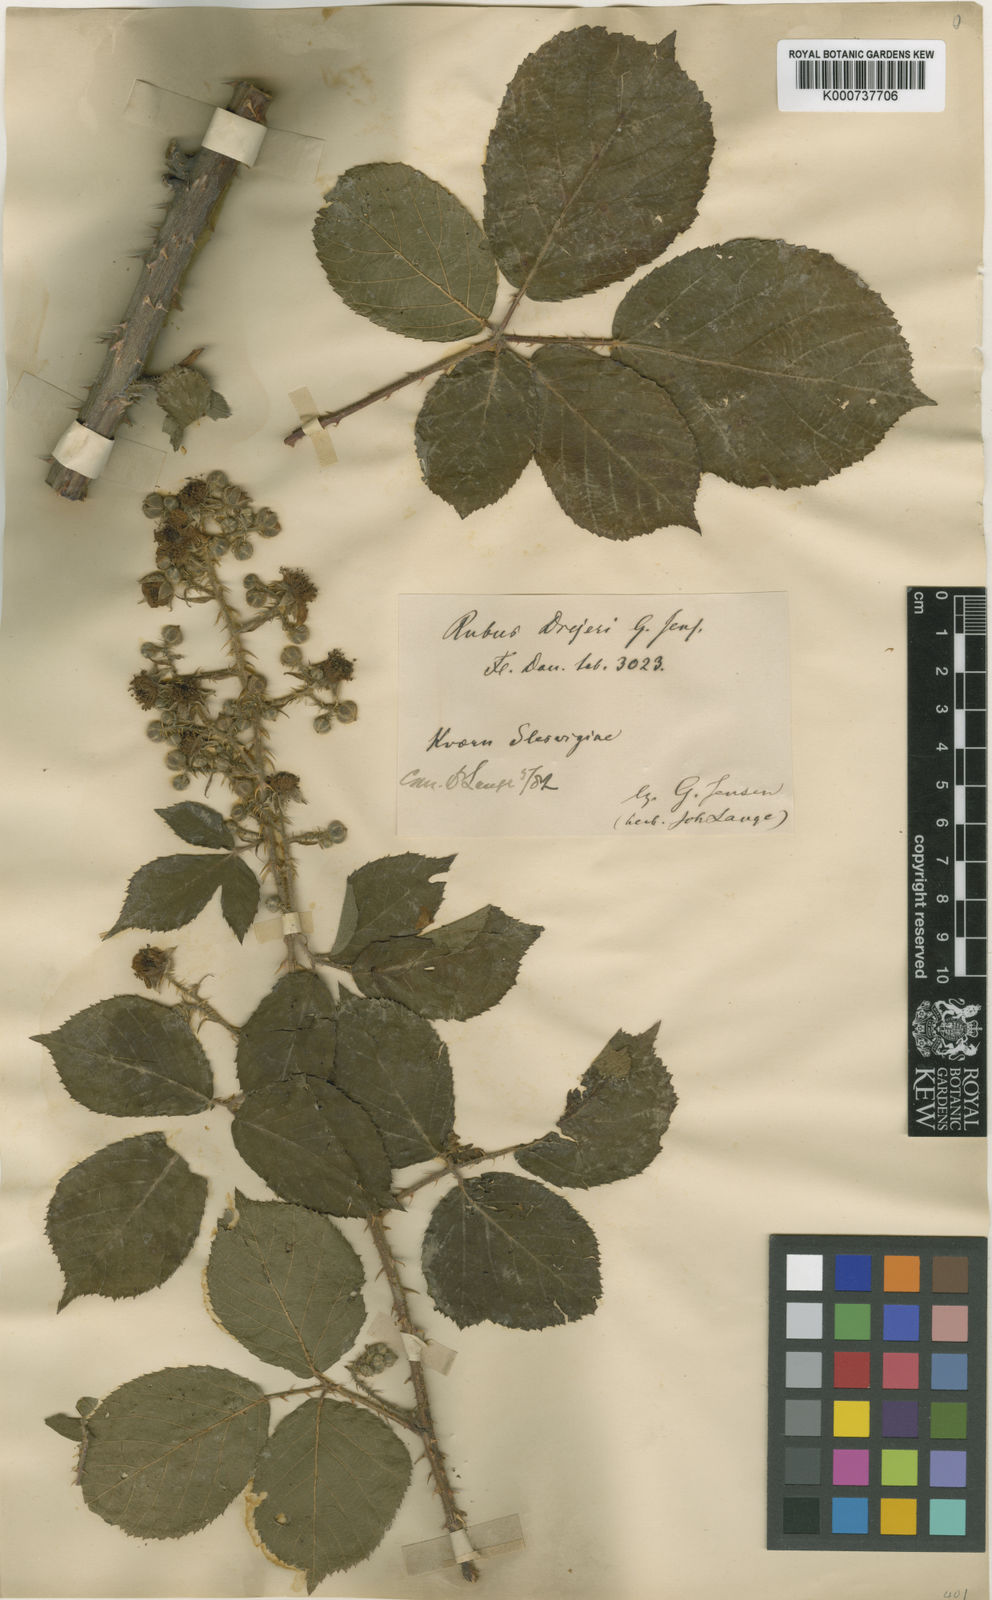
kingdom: Plantae
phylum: Tracheophyta
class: Magnoliopsida
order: Rosales
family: Rosaceae
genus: Rubus
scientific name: Rubus sprengelii
